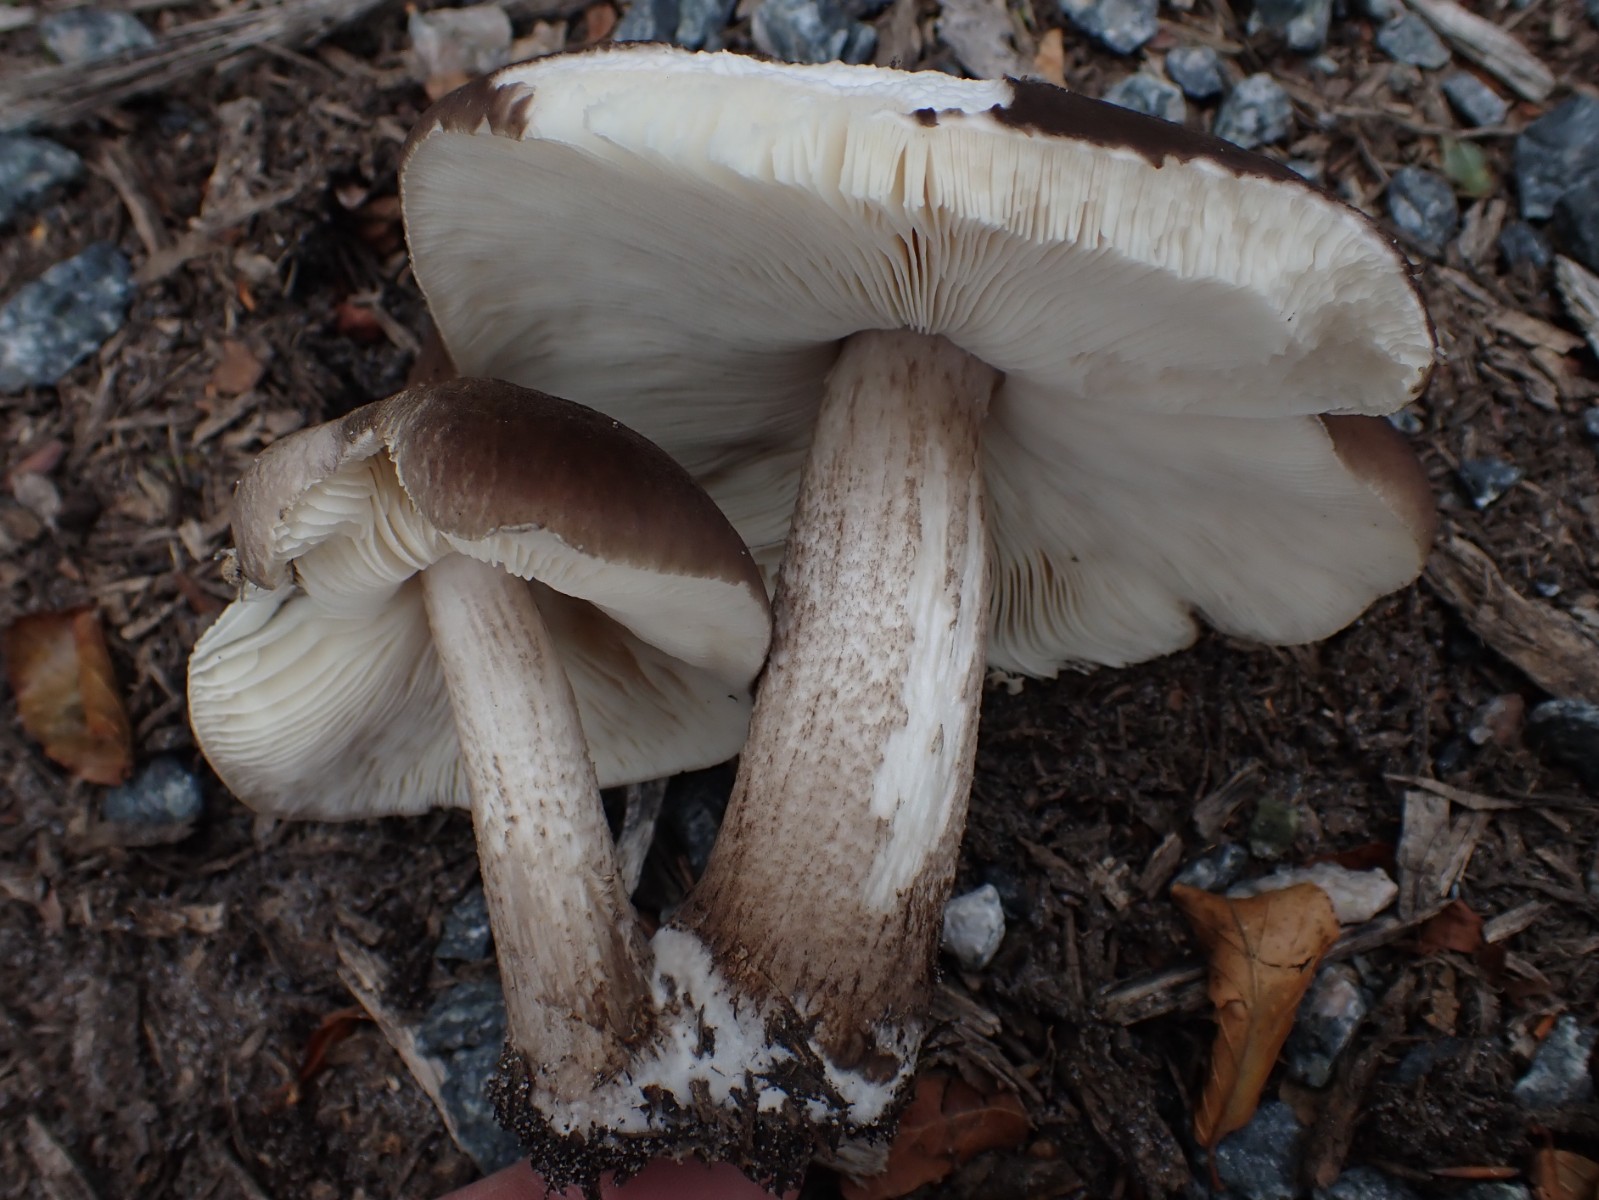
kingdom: Fungi
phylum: Basidiomycota
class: Agaricomycetes
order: Agaricales
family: Pluteaceae
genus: Pluteus
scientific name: Pluteus cervinus
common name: sodfarvet skærmhat
